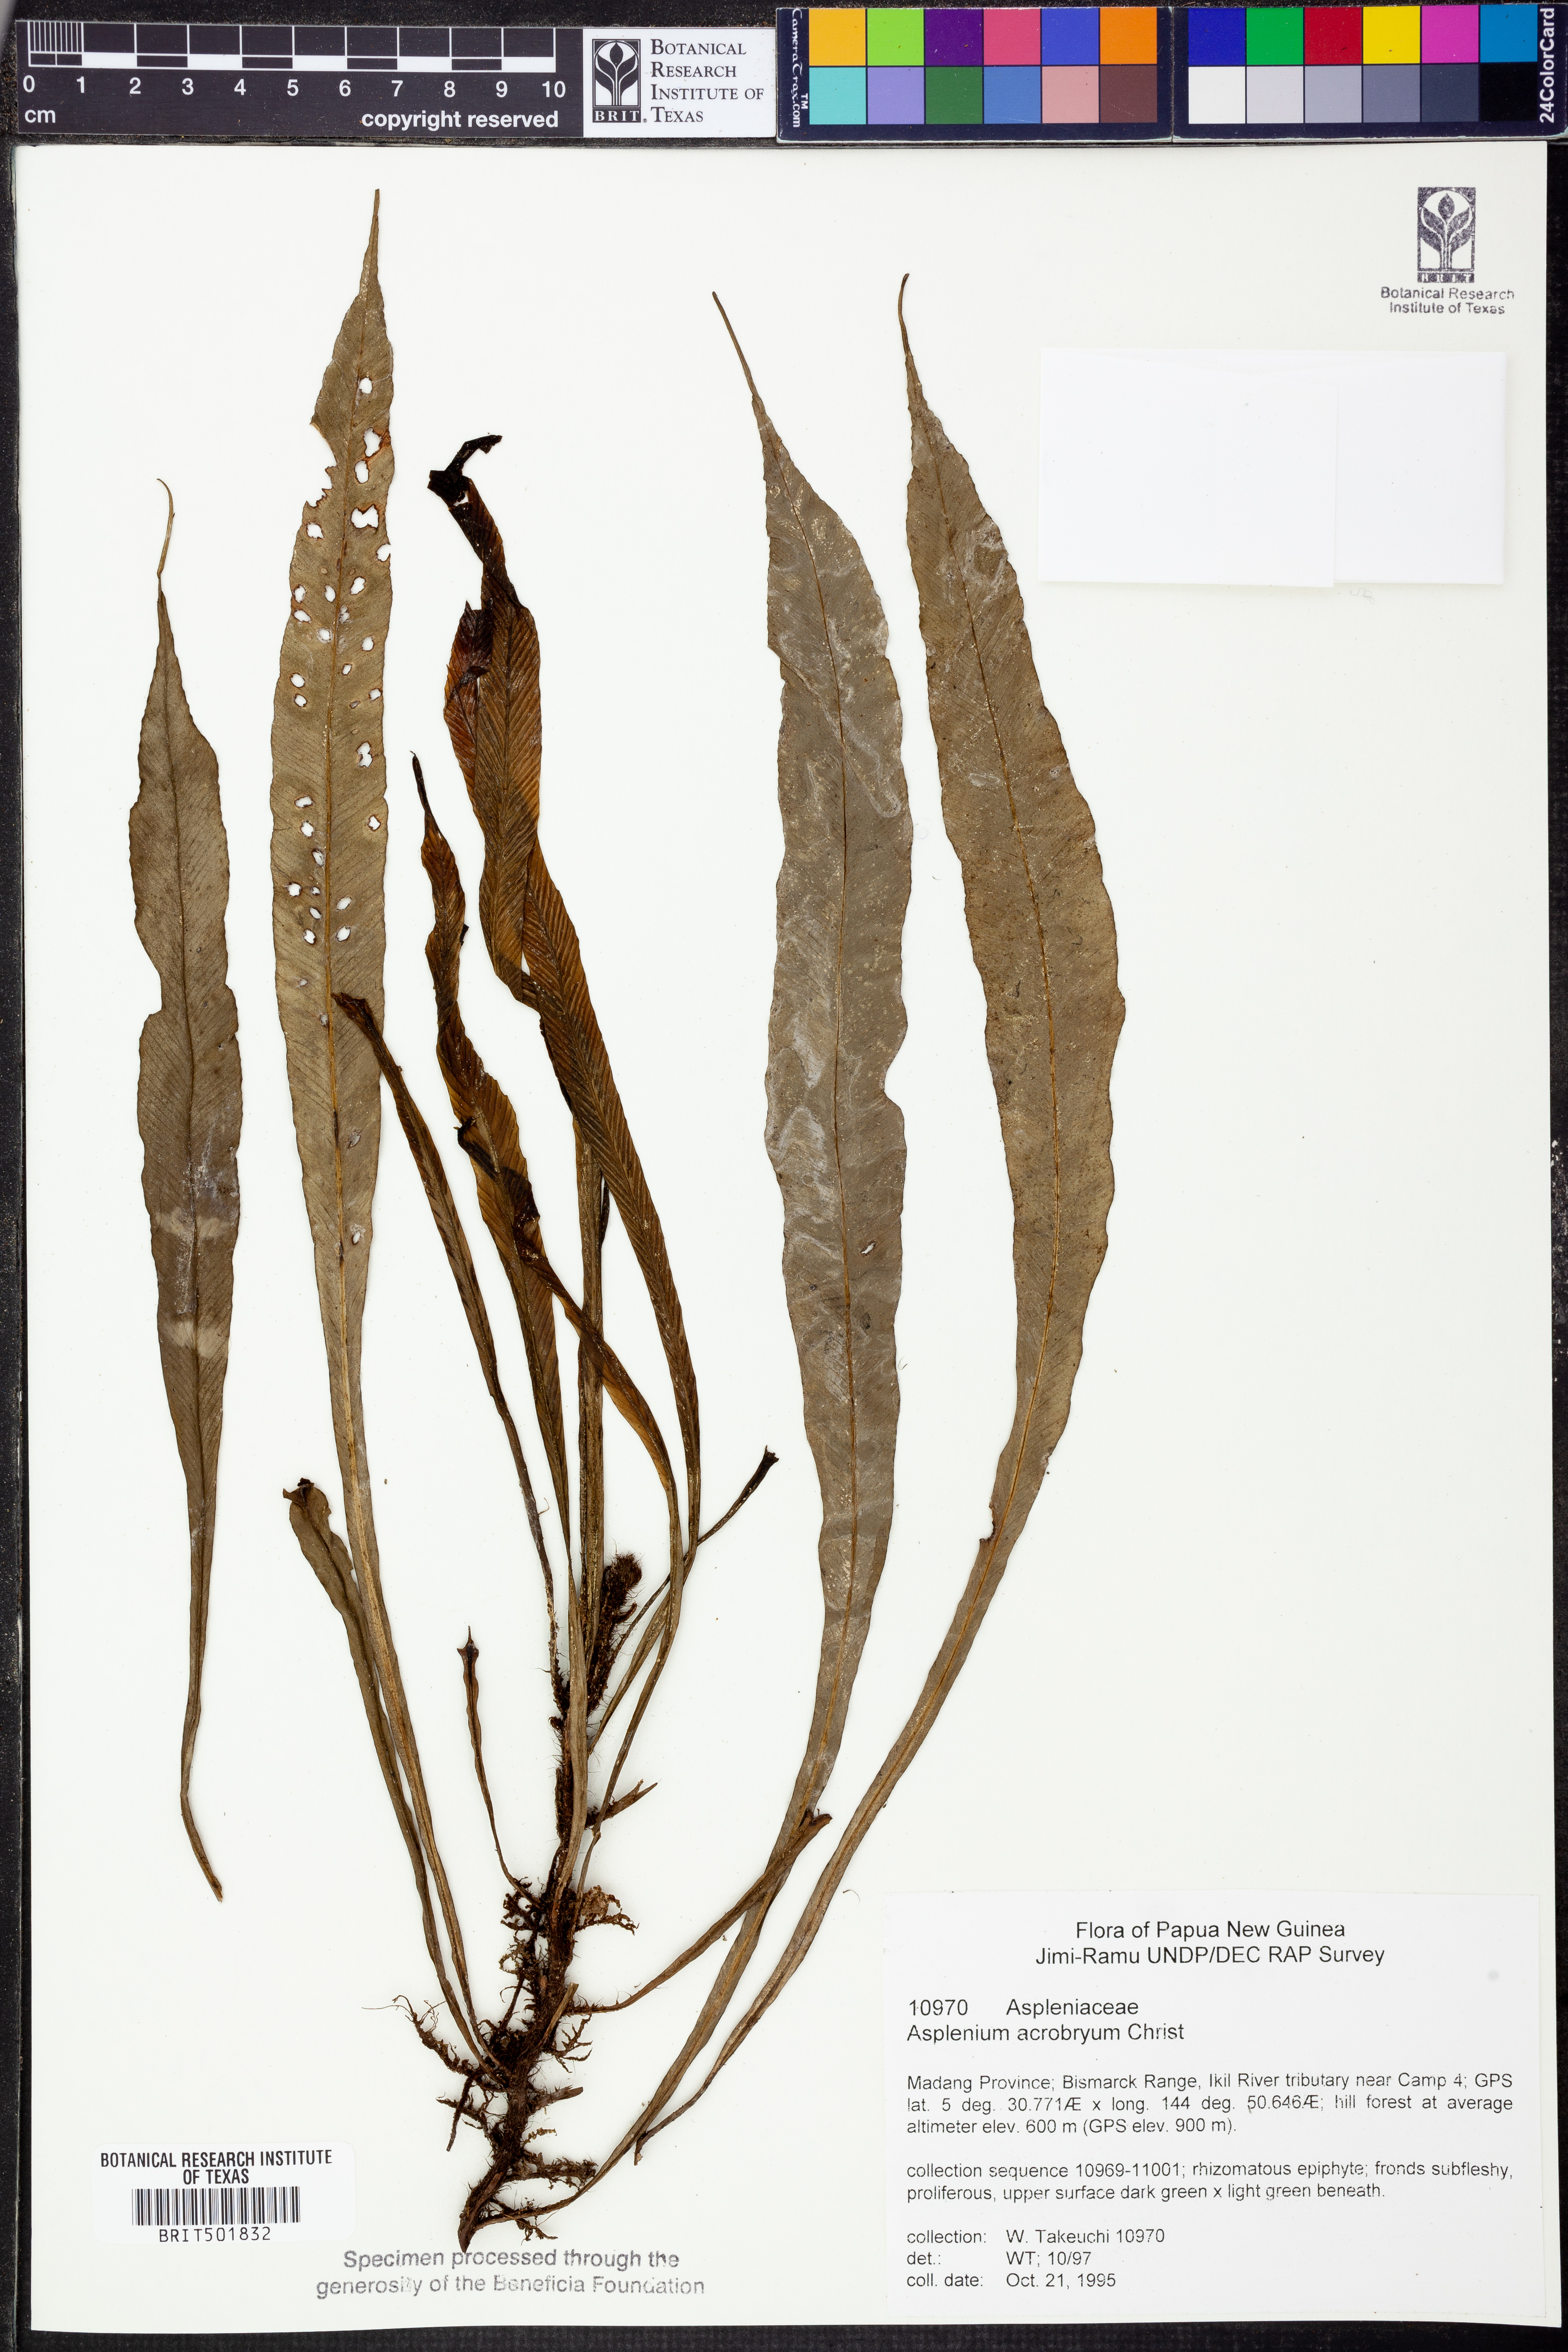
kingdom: Plantae
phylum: Tracheophyta
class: Polypodiopsida
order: Polypodiales
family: Aspleniaceae
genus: Asplenium
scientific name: Asplenium acrobryum
